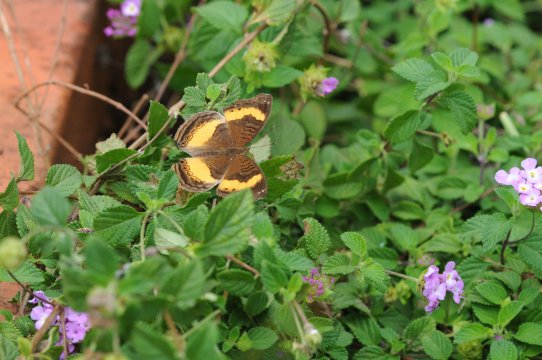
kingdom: Animalia
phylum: Arthropoda
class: Insecta
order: Lepidoptera
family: Nymphalidae
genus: Junonia
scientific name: Junonia terea
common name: Soldier Pansy
